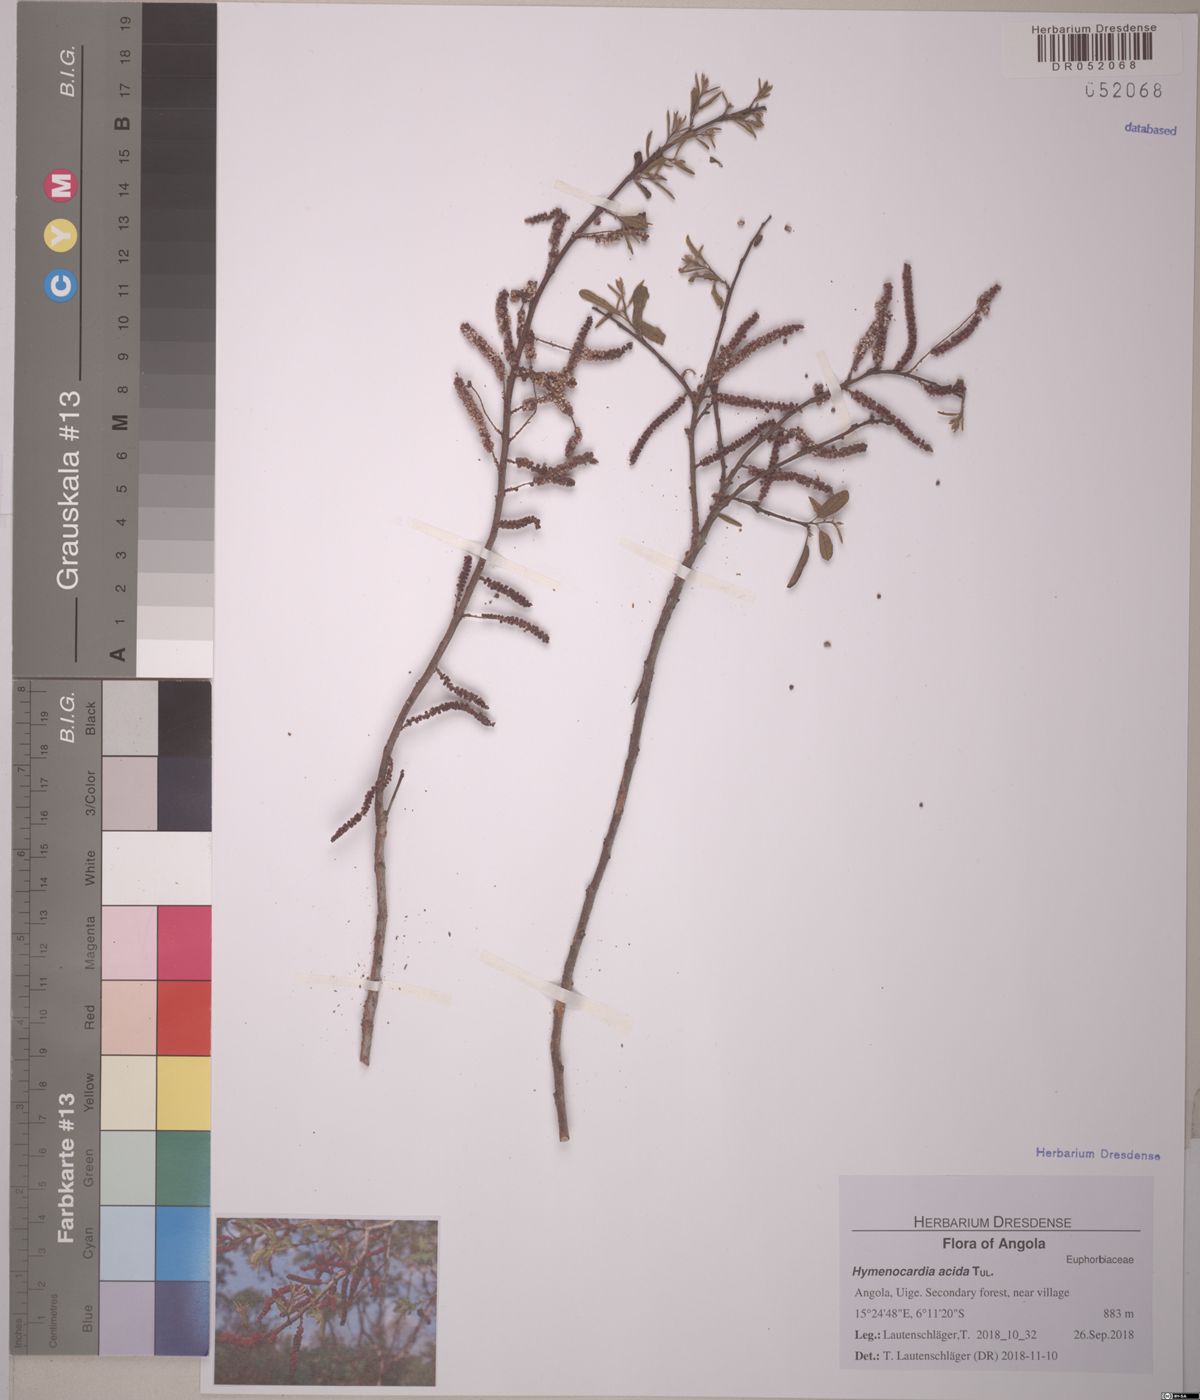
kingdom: Plantae
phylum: Tracheophyta
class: Magnoliopsida
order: Malpighiales
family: Phyllanthaceae
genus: Hymenocardia
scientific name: Hymenocardia acida
